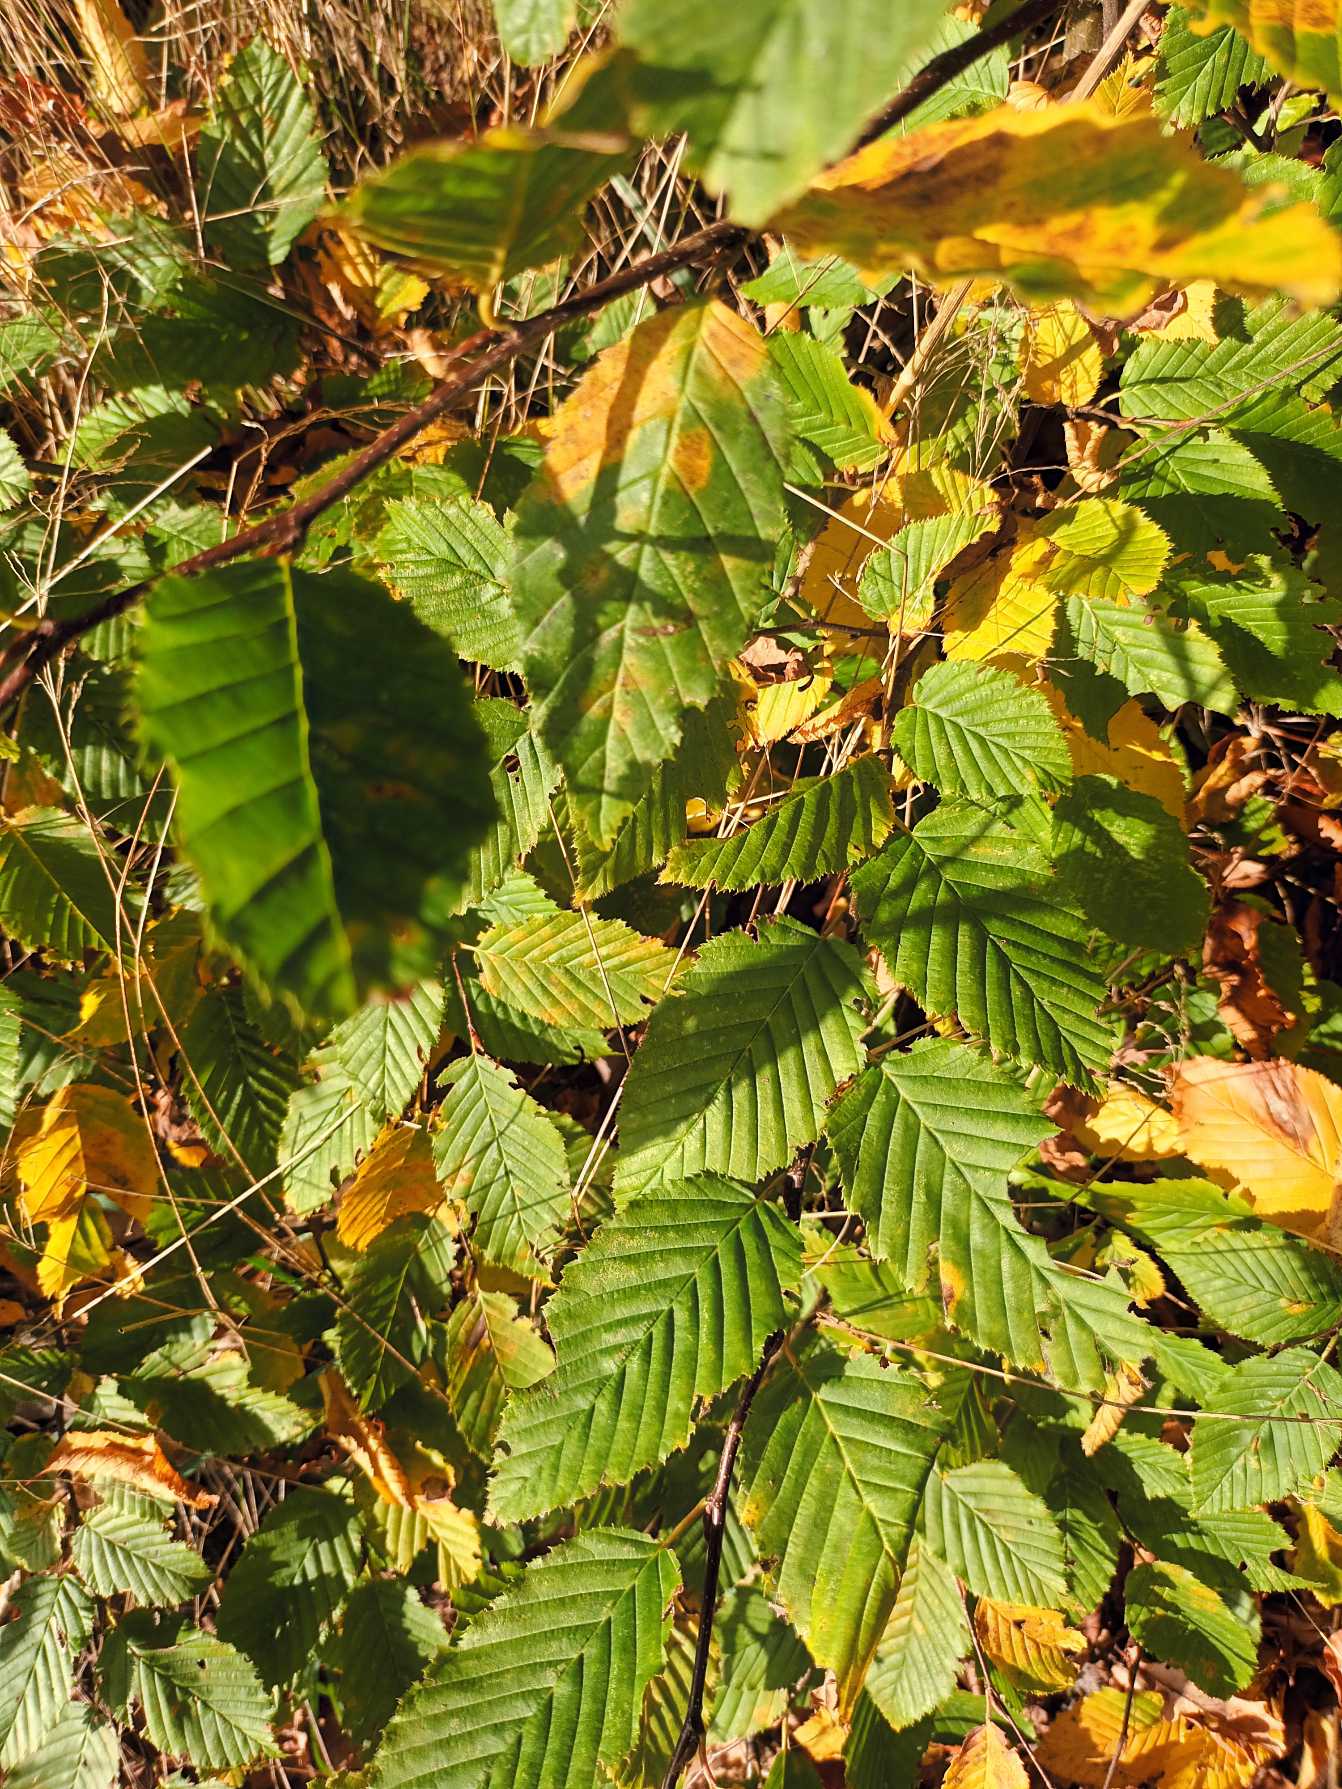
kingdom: Plantae
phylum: Tracheophyta
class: Magnoliopsida
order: Fagales
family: Betulaceae
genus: Carpinus
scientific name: Carpinus betulus
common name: Avnbøg
